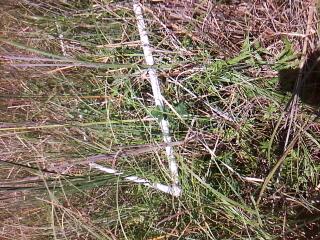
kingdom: Plantae
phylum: Tracheophyta
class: Liliopsida
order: Poales
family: Typhaceae
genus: Typha
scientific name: Typha angustifolia
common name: Lesser bulrush
